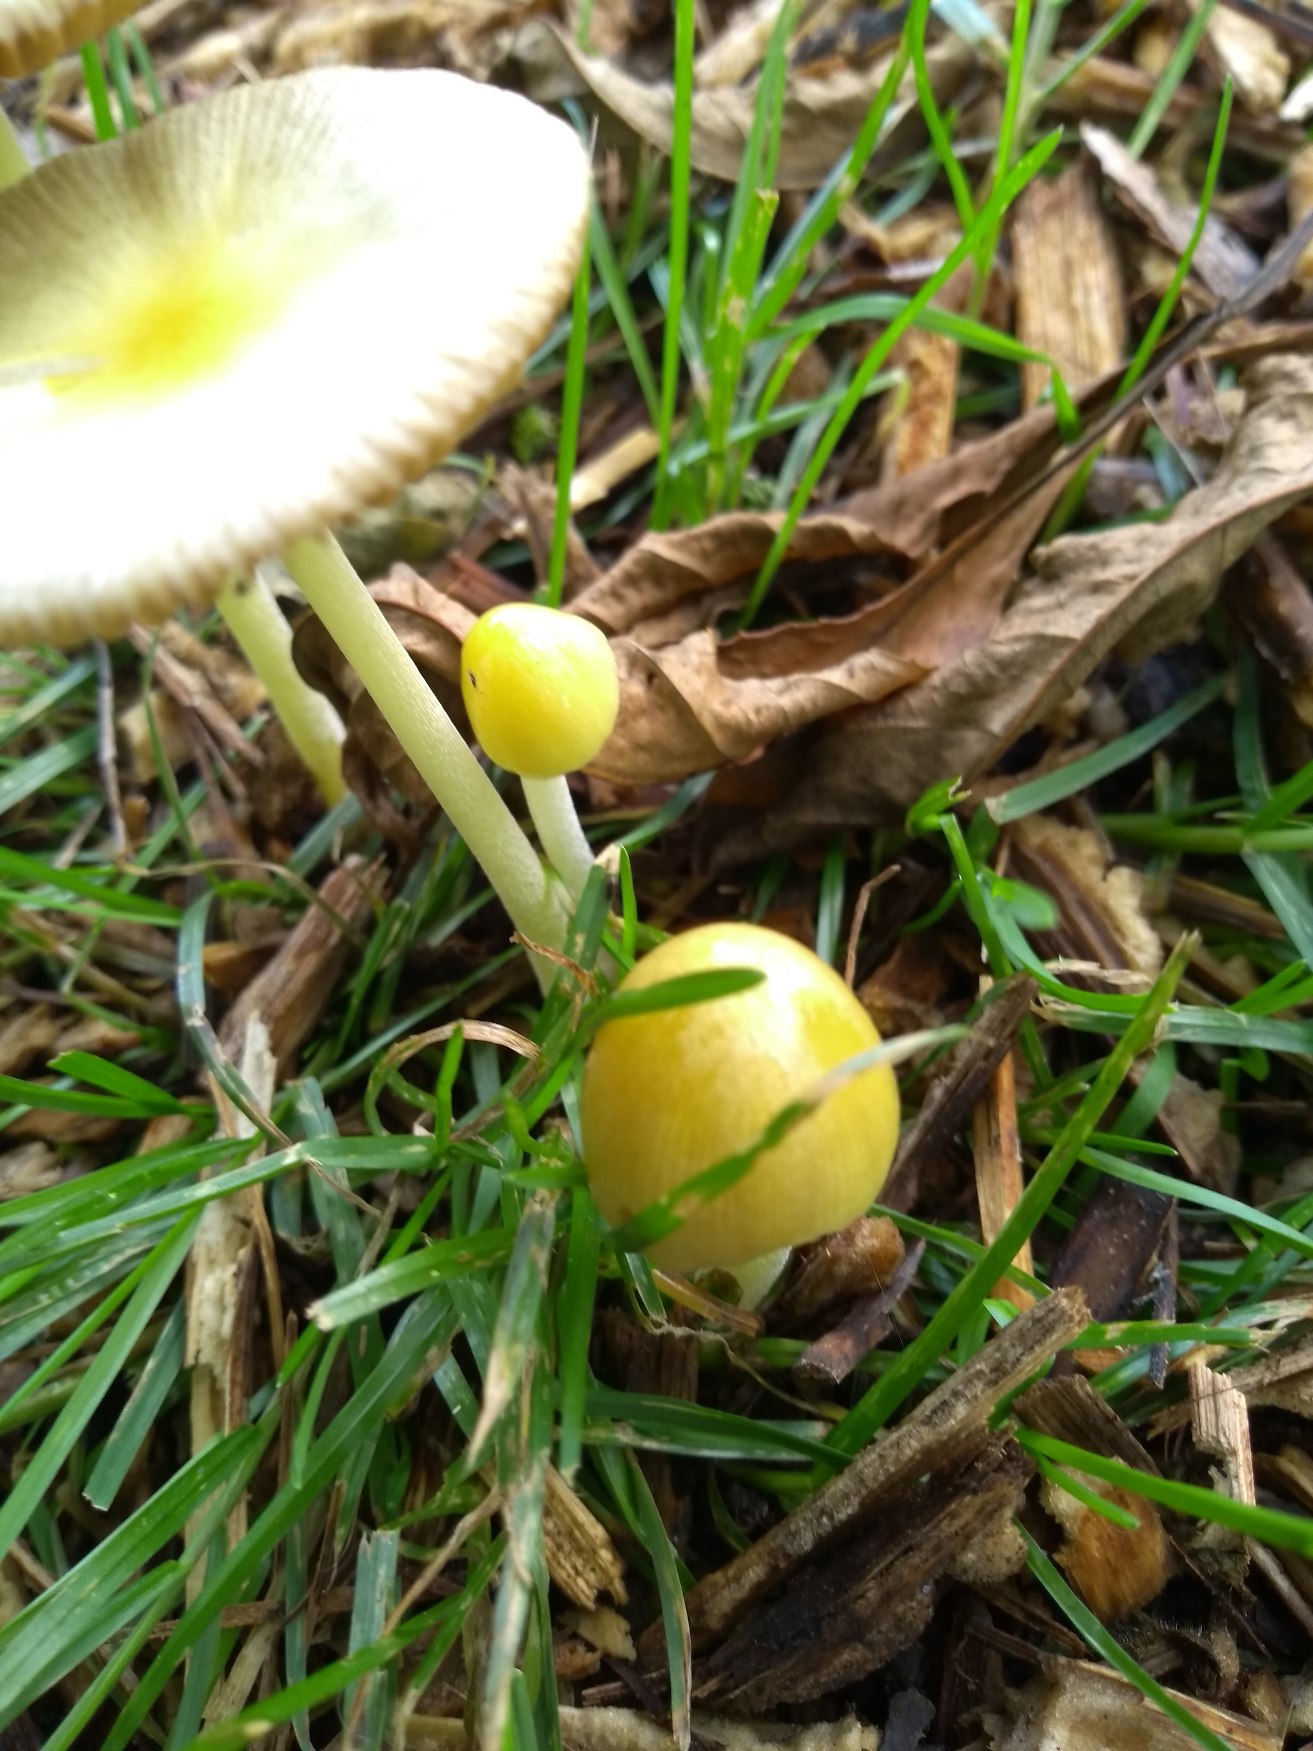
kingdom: Fungi
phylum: Basidiomycota
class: Agaricomycetes
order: Agaricales
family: Bolbitiaceae
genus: Bolbitius
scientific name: Bolbitius titubans
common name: Almindelig gulhat
